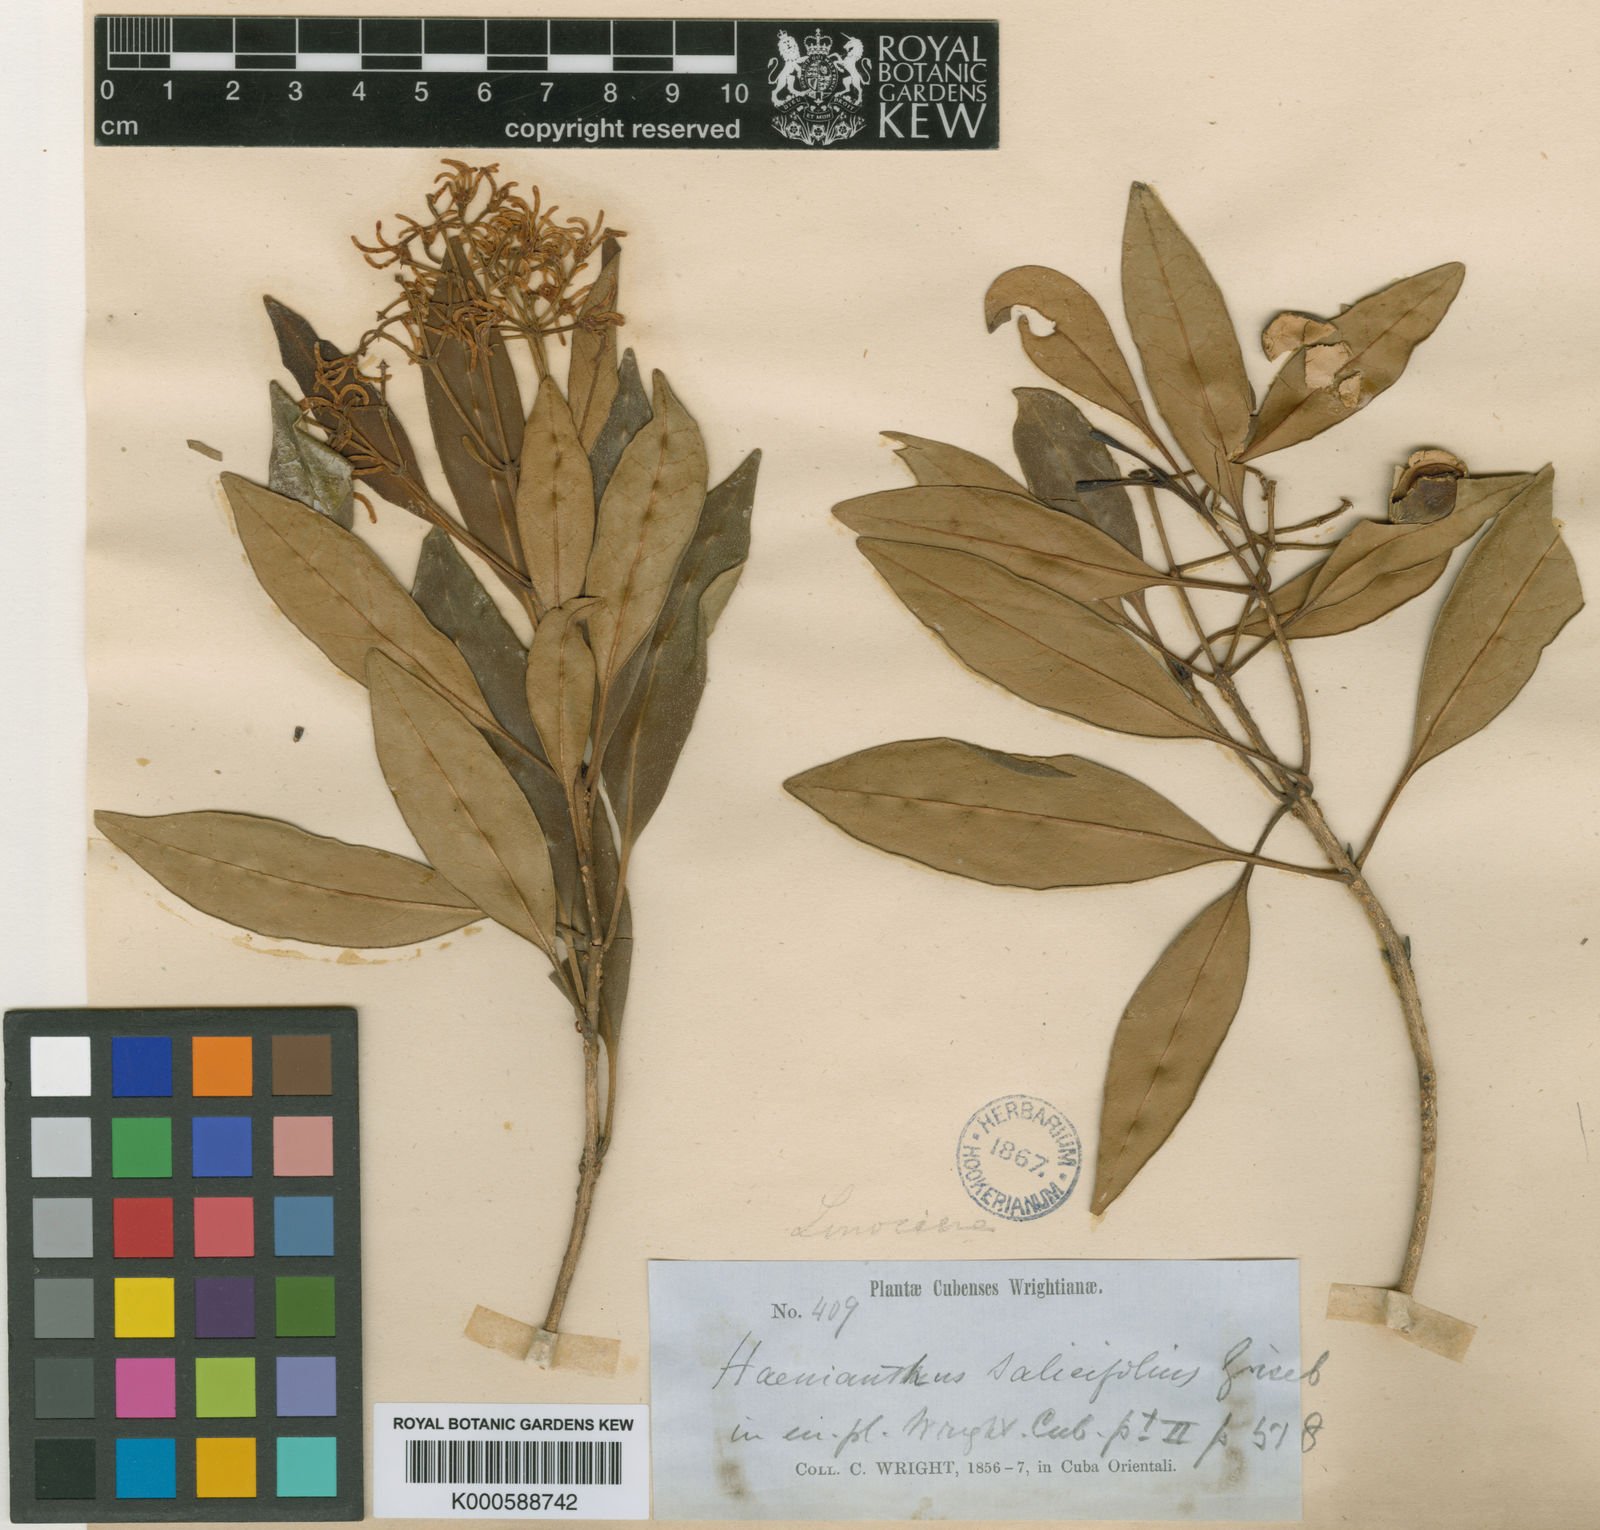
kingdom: Plantae
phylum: Tracheophyta
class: Magnoliopsida
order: Lamiales
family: Oleaceae
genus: Haenianthus
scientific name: Haenianthus salicifolius
